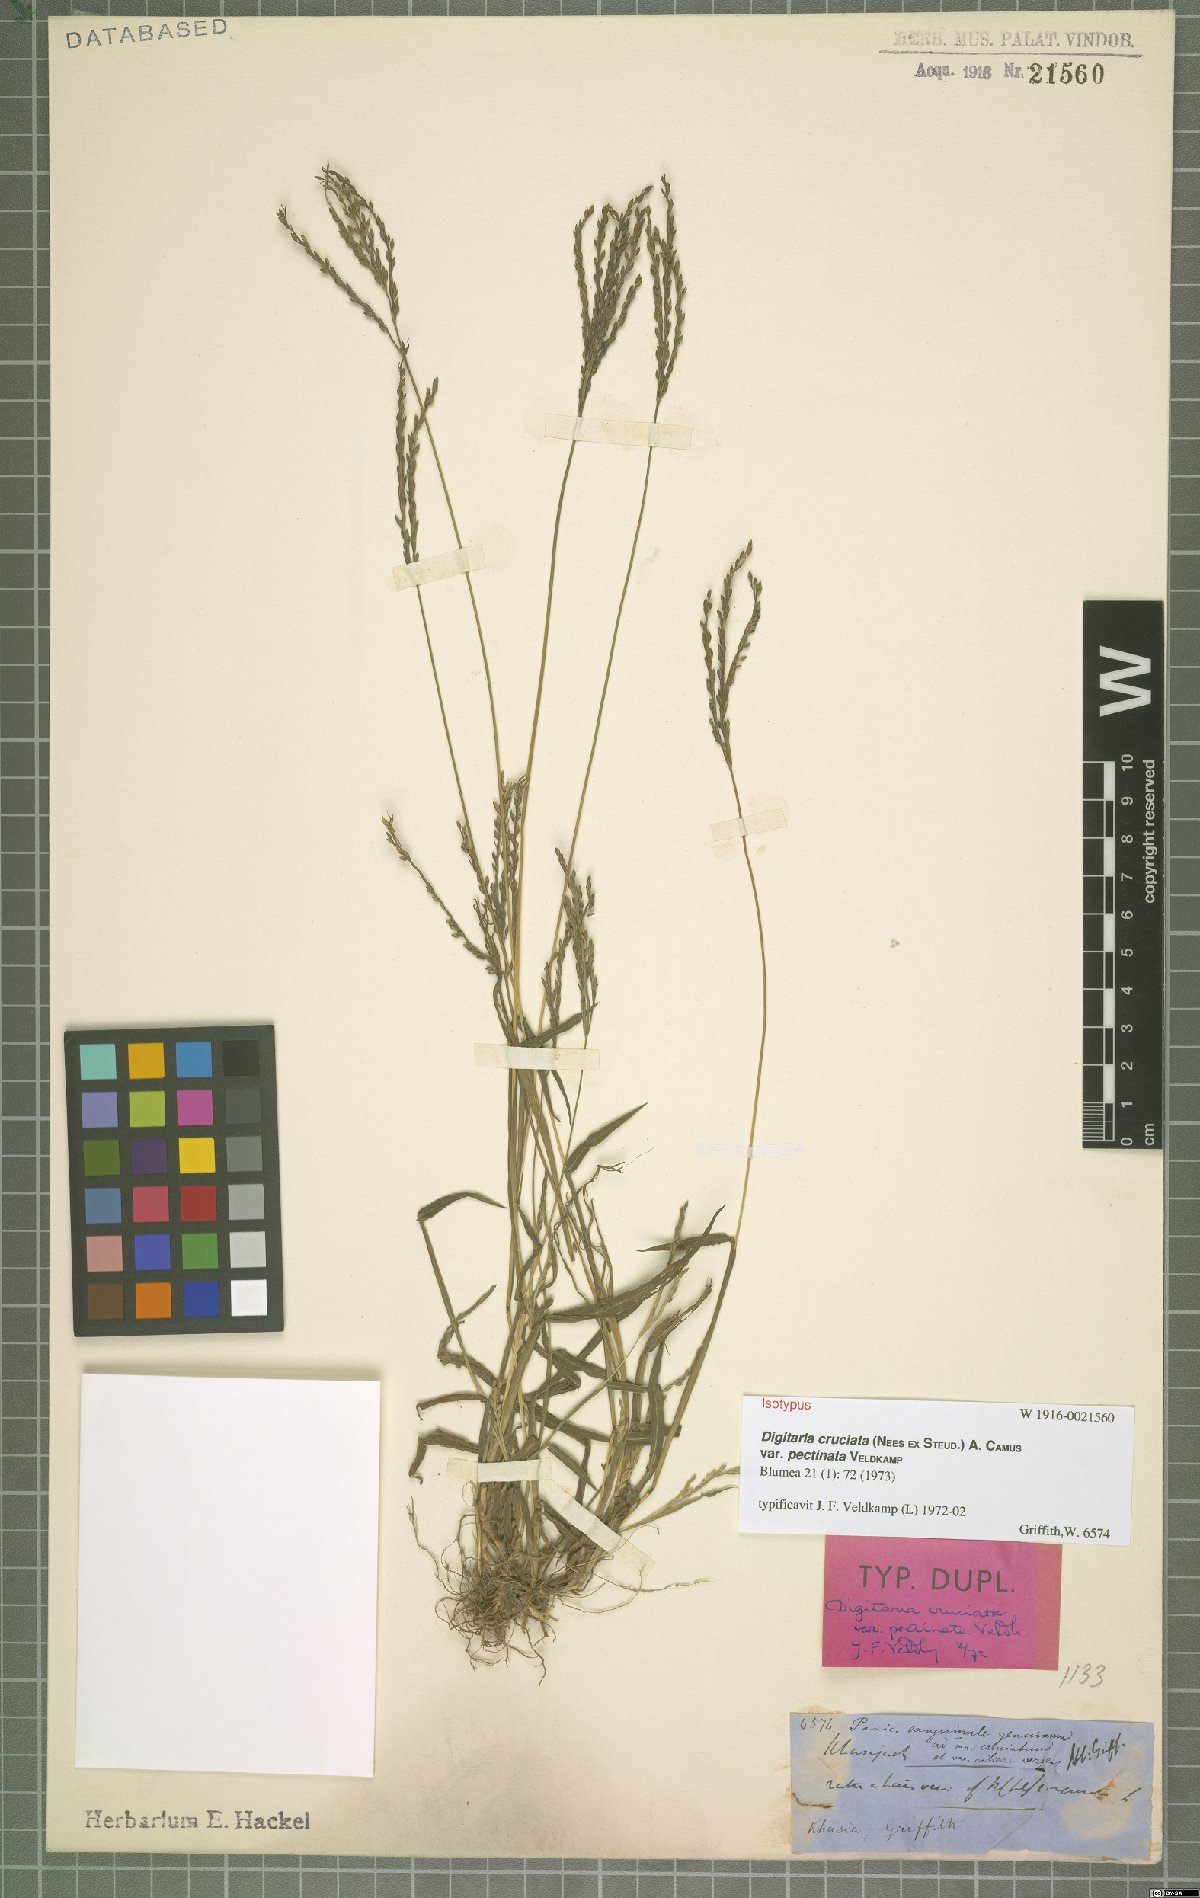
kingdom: Plantae
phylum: Tracheophyta
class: Liliopsida
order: Poales
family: Poaceae
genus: Digitaria
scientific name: Digitaria cruciata
